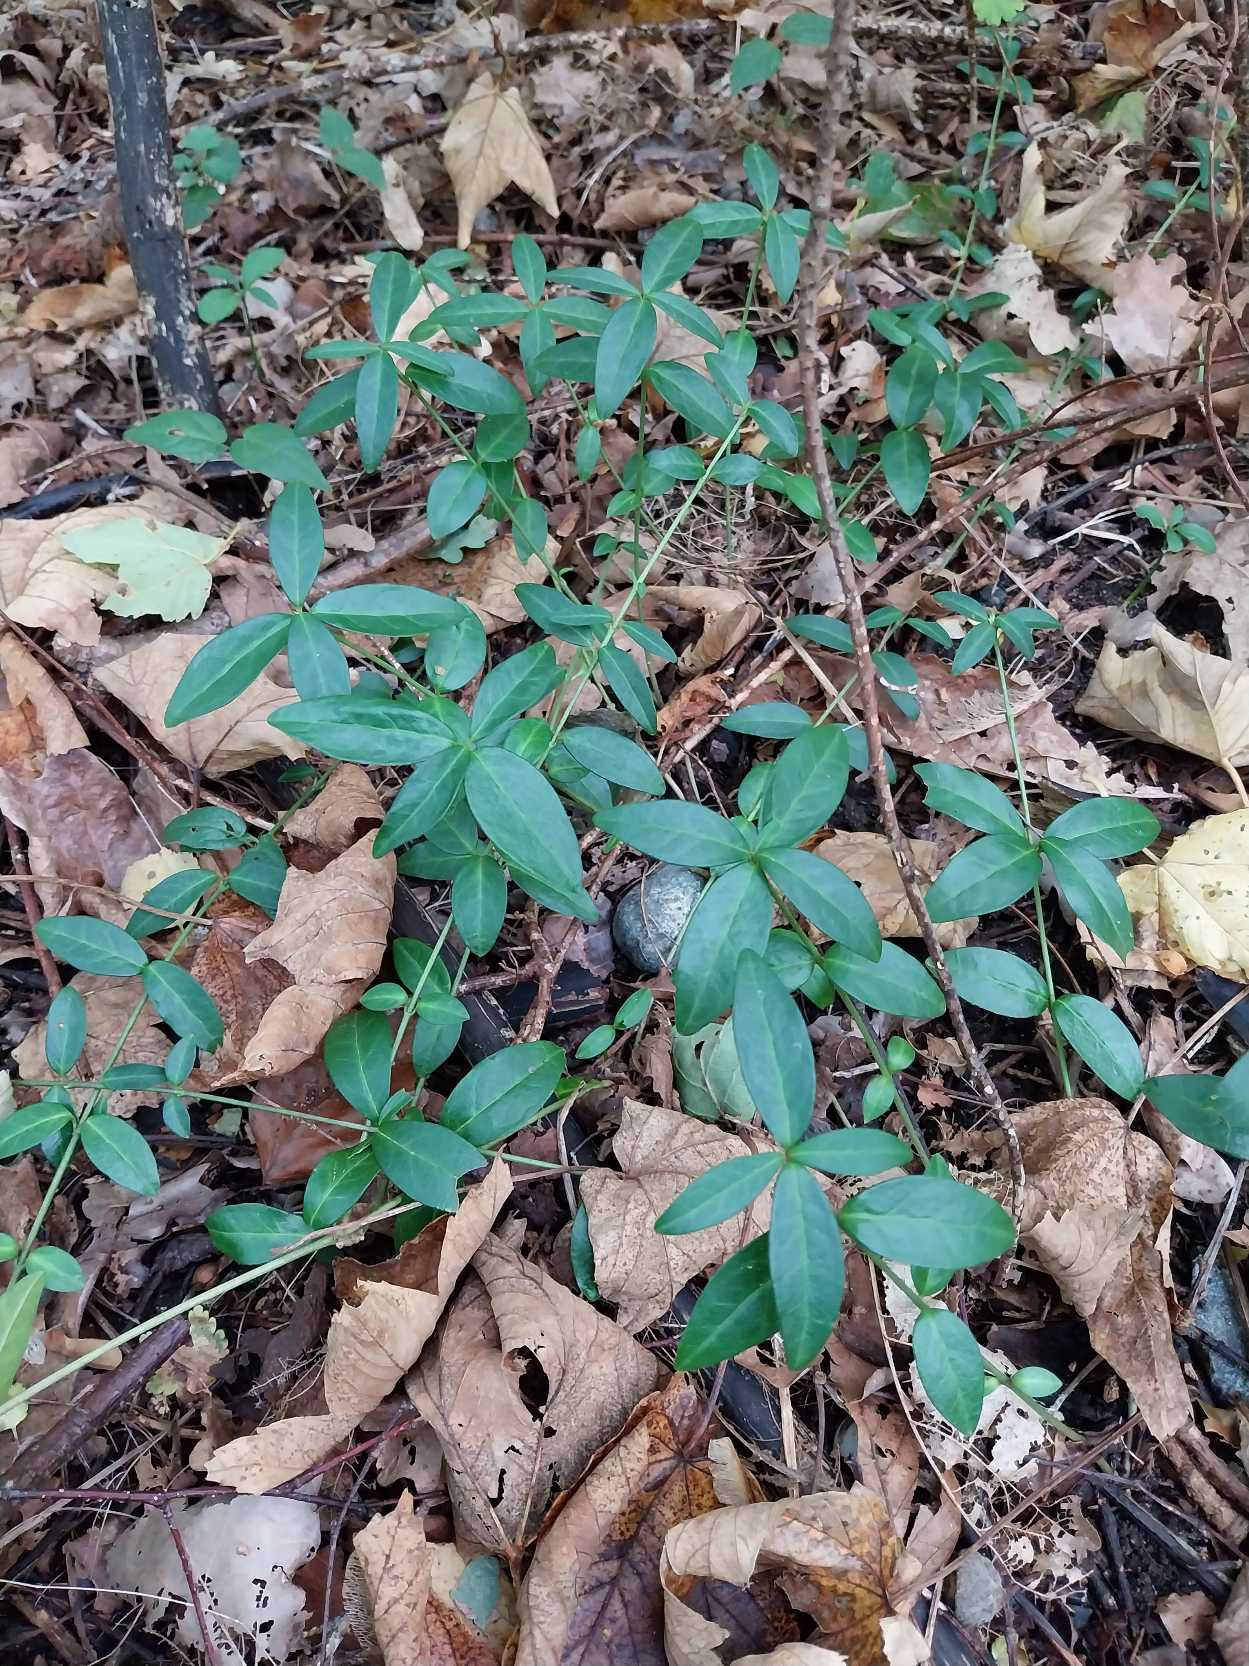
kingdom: Plantae
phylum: Tracheophyta
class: Magnoliopsida
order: Gentianales
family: Apocynaceae
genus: Vinca
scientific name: Vinca minor
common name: Liden singrøn
